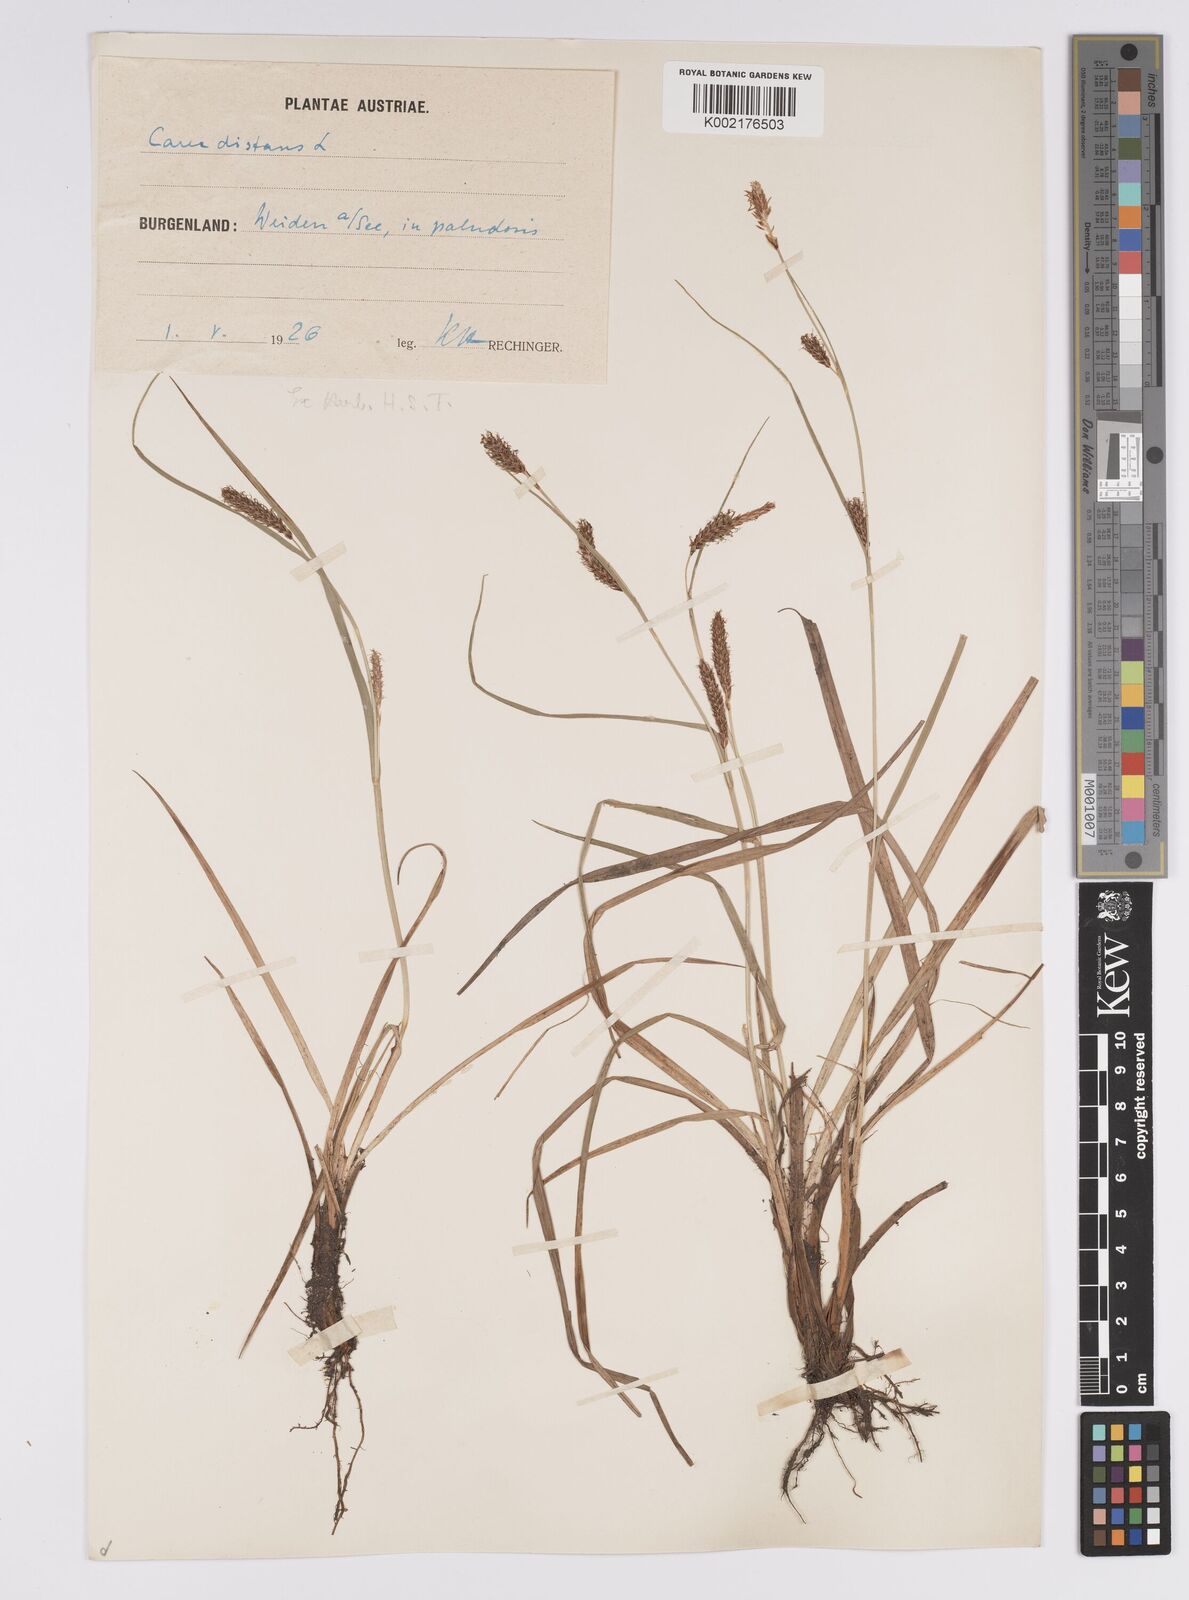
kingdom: Plantae
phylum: Tracheophyta
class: Liliopsida
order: Poales
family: Cyperaceae
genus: Carex
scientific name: Carex distans
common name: Distant sedge
